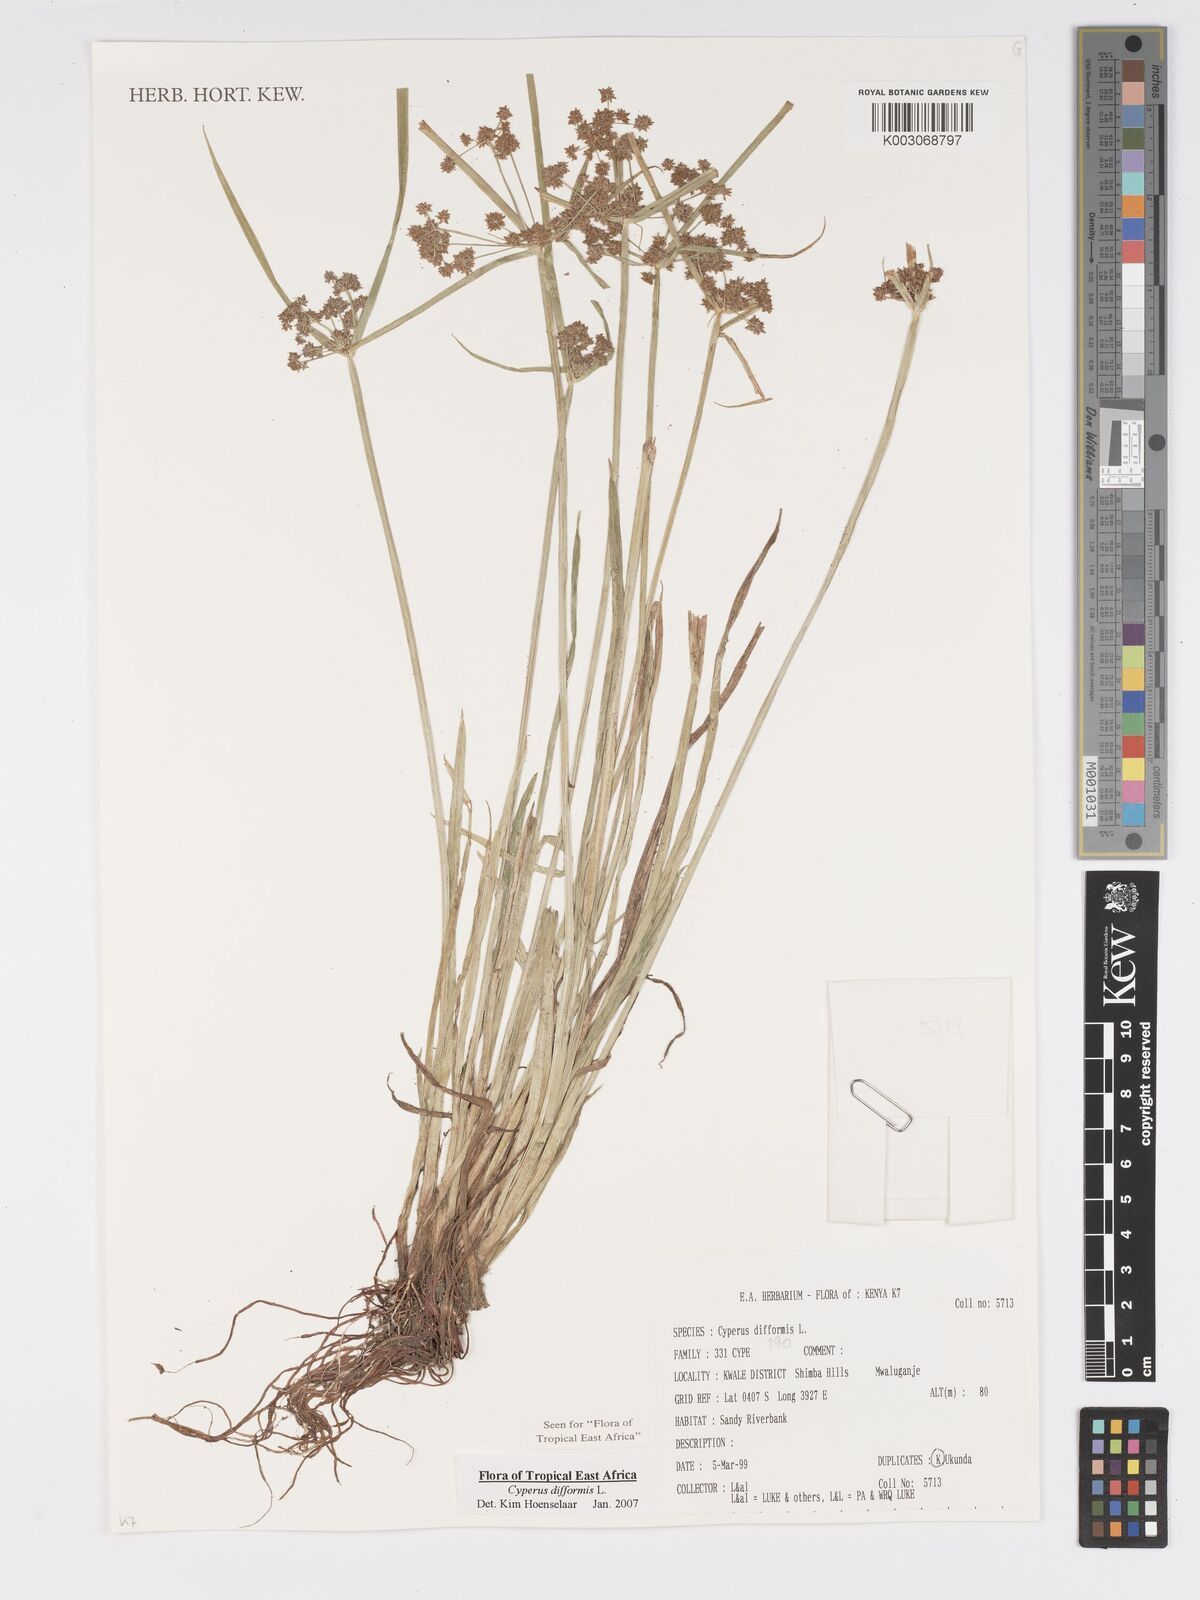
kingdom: Plantae
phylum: Tracheophyta
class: Liliopsida
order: Poales
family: Cyperaceae
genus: Cyperus
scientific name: Cyperus difformis
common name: Variable flatsedge
